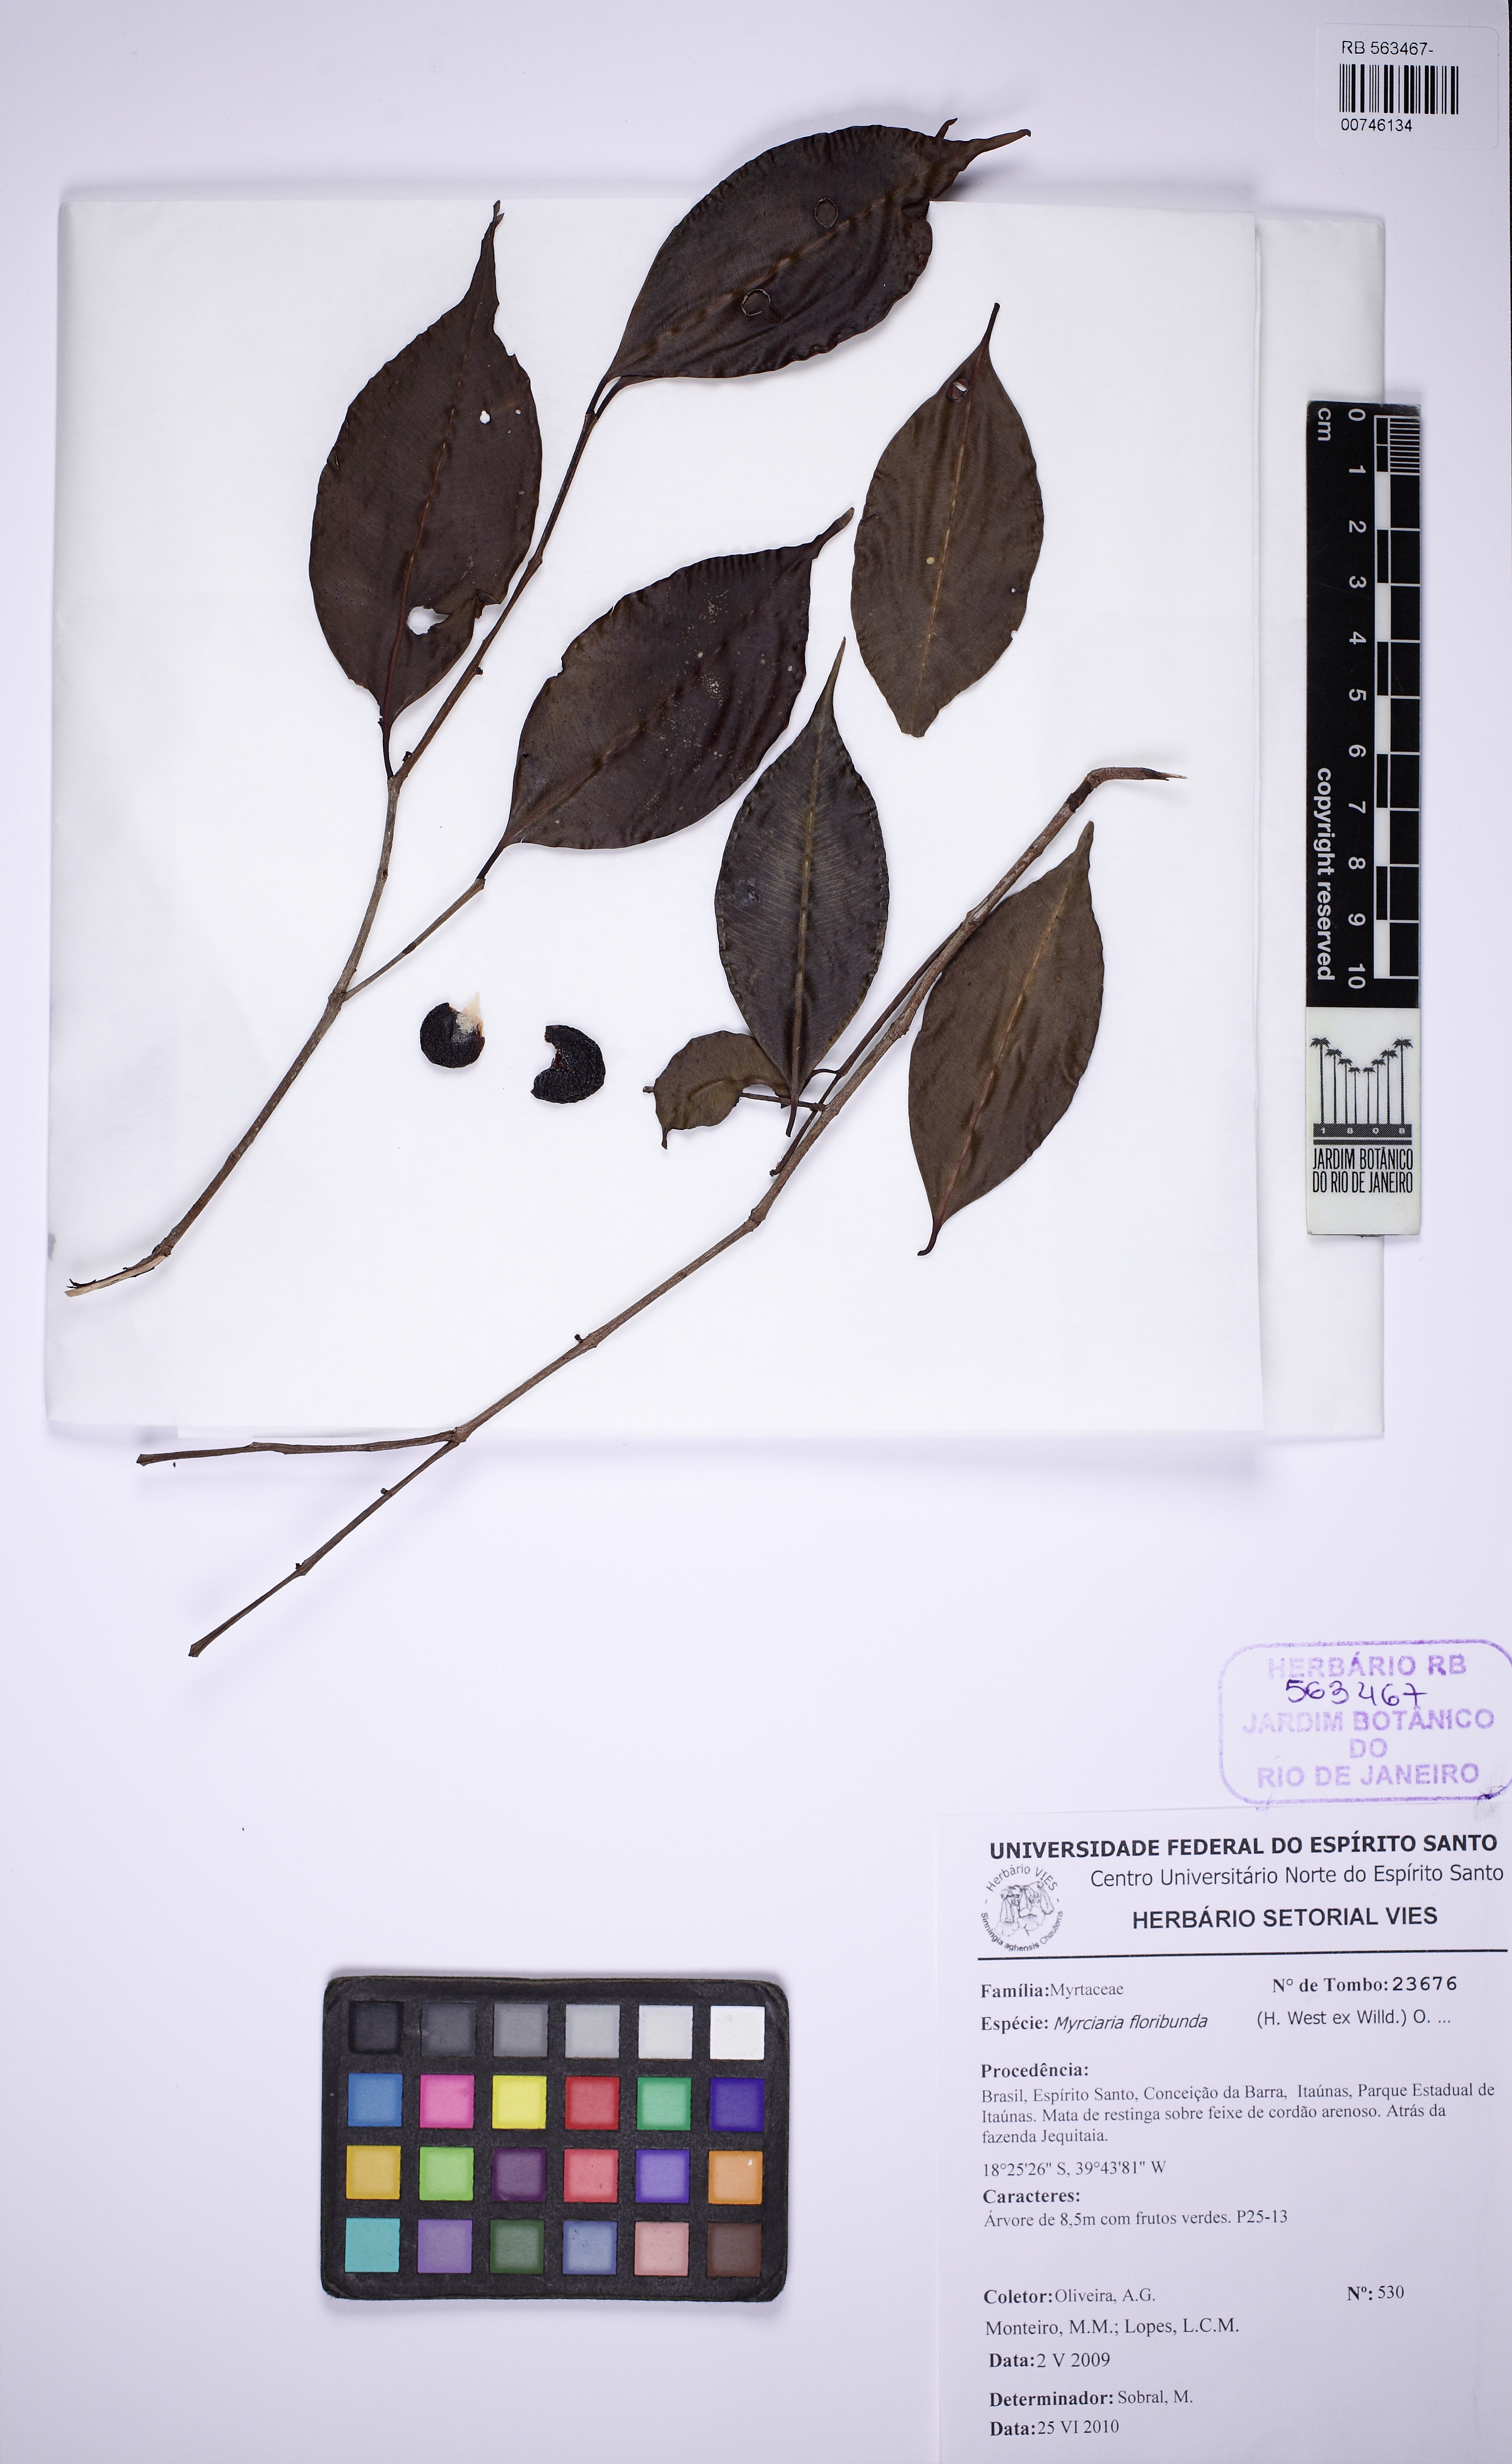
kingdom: Plantae
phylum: Tracheophyta
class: Magnoliopsida
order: Myrtales
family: Myrtaceae
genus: Myrciaria
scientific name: Myrciaria floribunda
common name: Guavaberry
